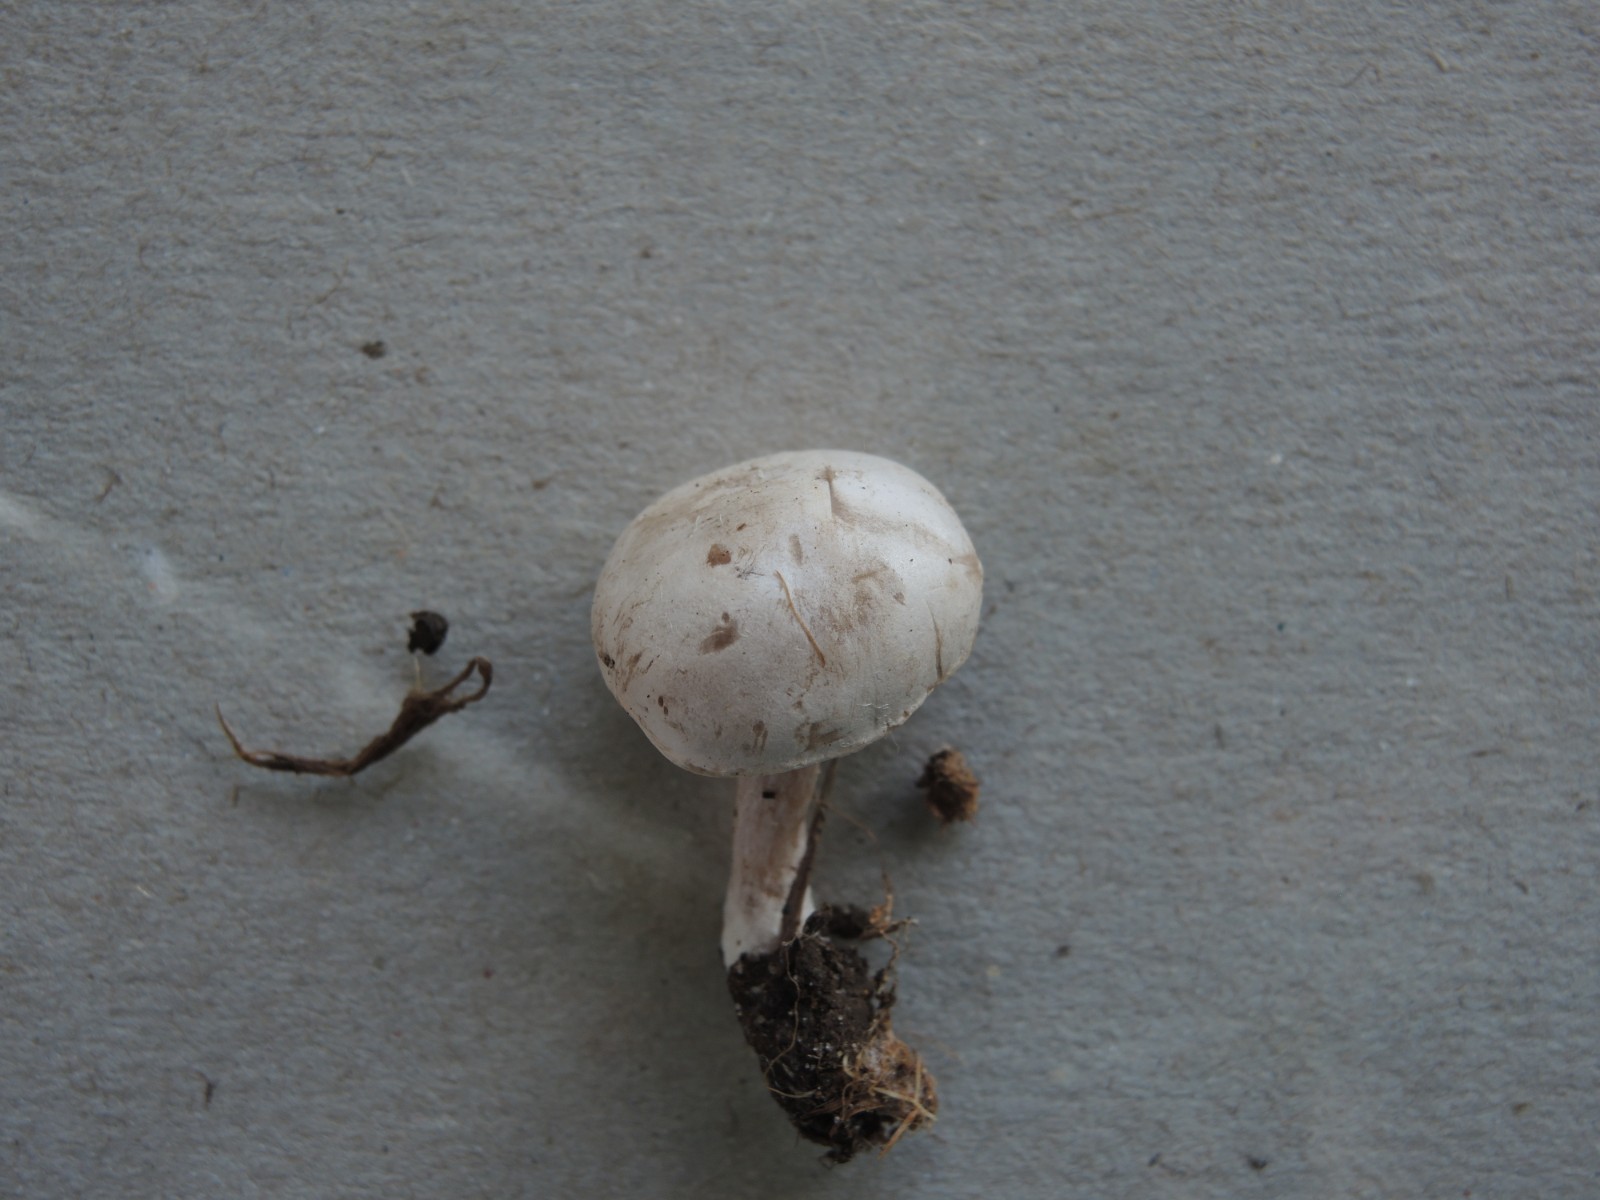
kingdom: Fungi
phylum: Basidiomycota
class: Agaricomycetes
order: Agaricales
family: Tricholomataceae
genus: Clitocybe
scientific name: Clitocybe rivulosa
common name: eng-tragthat
